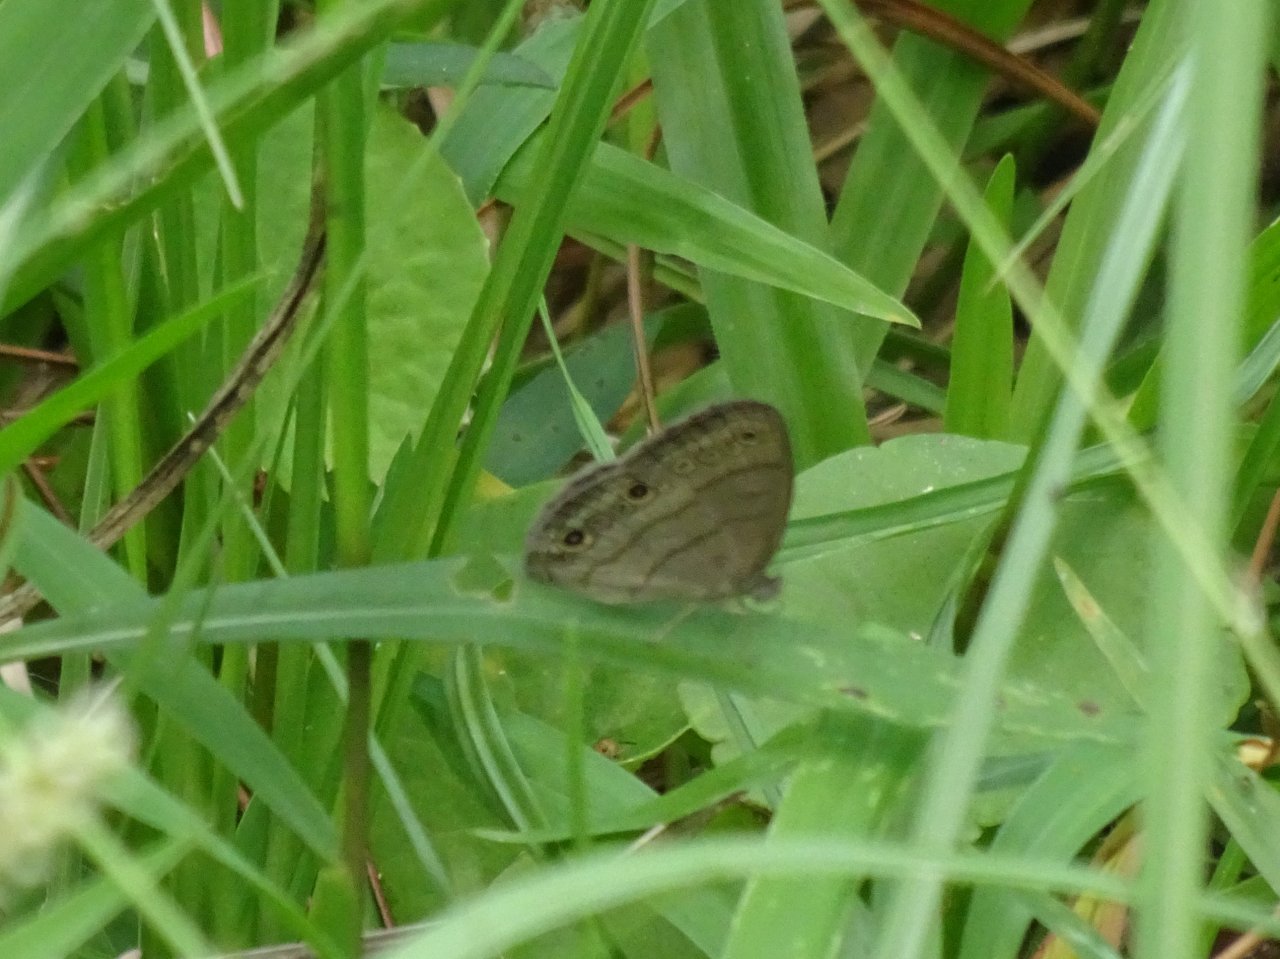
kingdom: Animalia
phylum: Arthropoda
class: Insecta
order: Lepidoptera
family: Nymphalidae
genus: Hermeuptychia
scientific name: Hermeuptychia hermes
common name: Carolina Satyr
